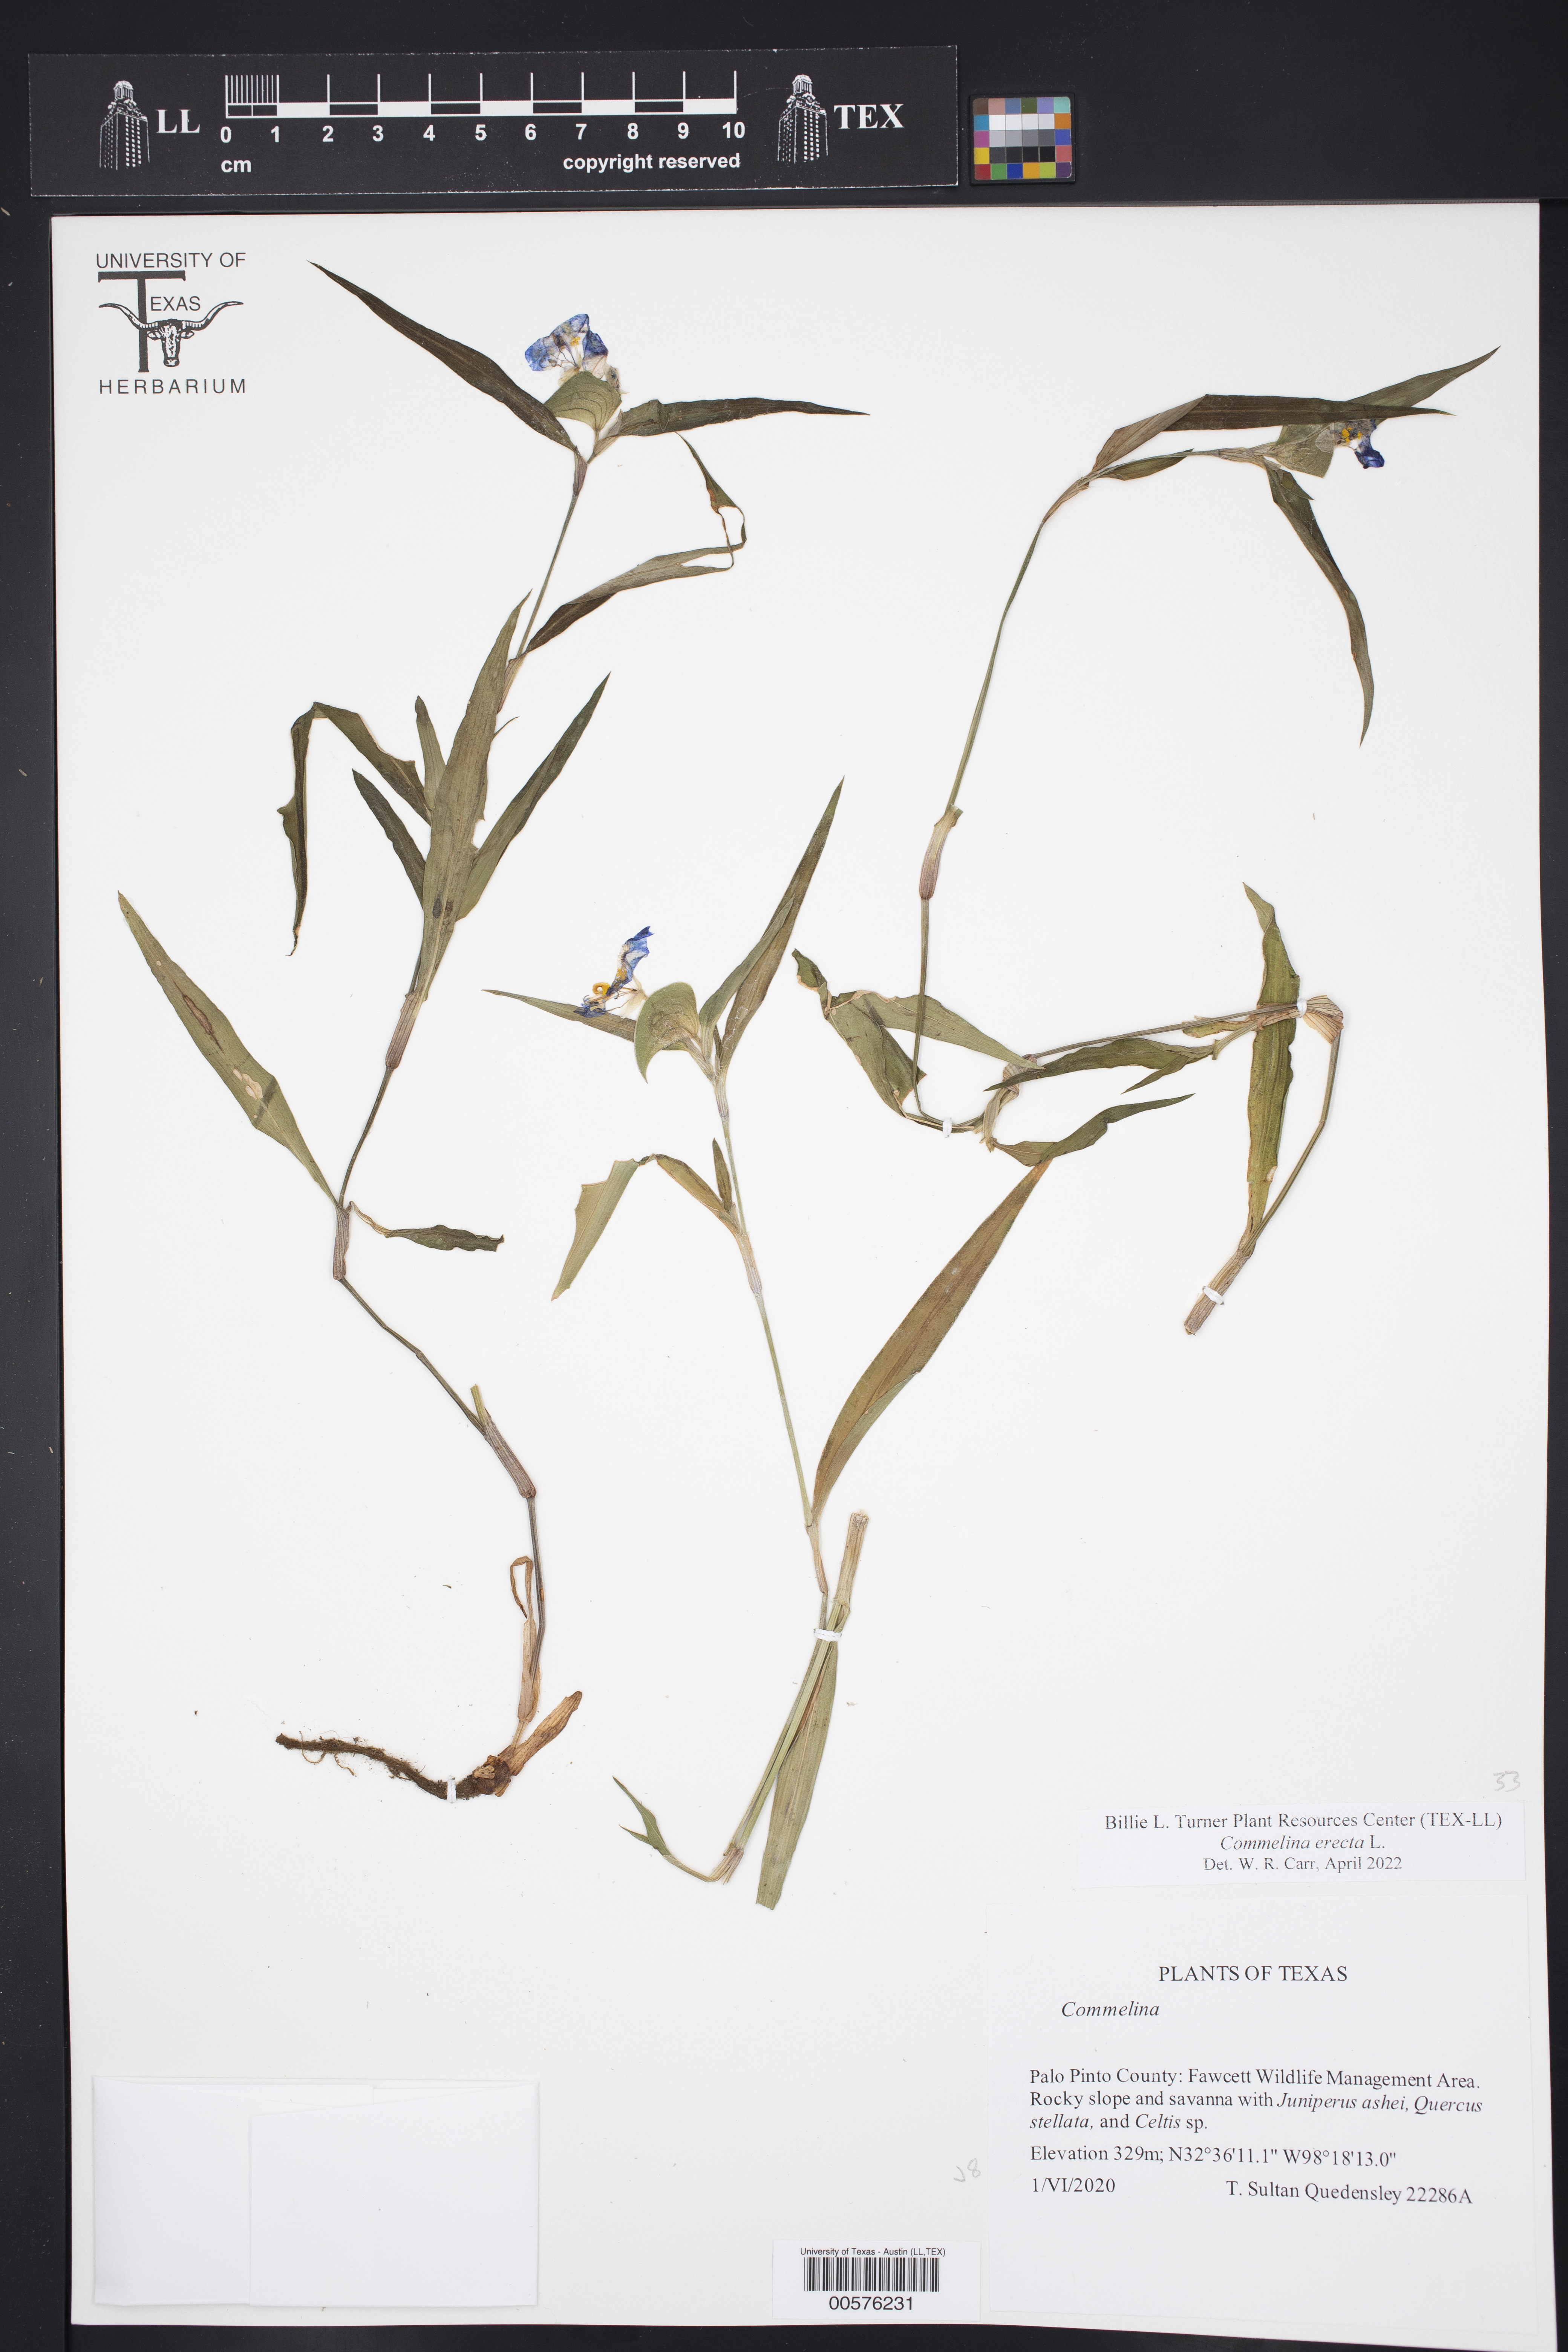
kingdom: Plantae
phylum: Tracheophyta
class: Liliopsida
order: Commelinales
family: Commelinaceae
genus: Commelina
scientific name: Commelina erecta
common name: Blousel blommetjie
